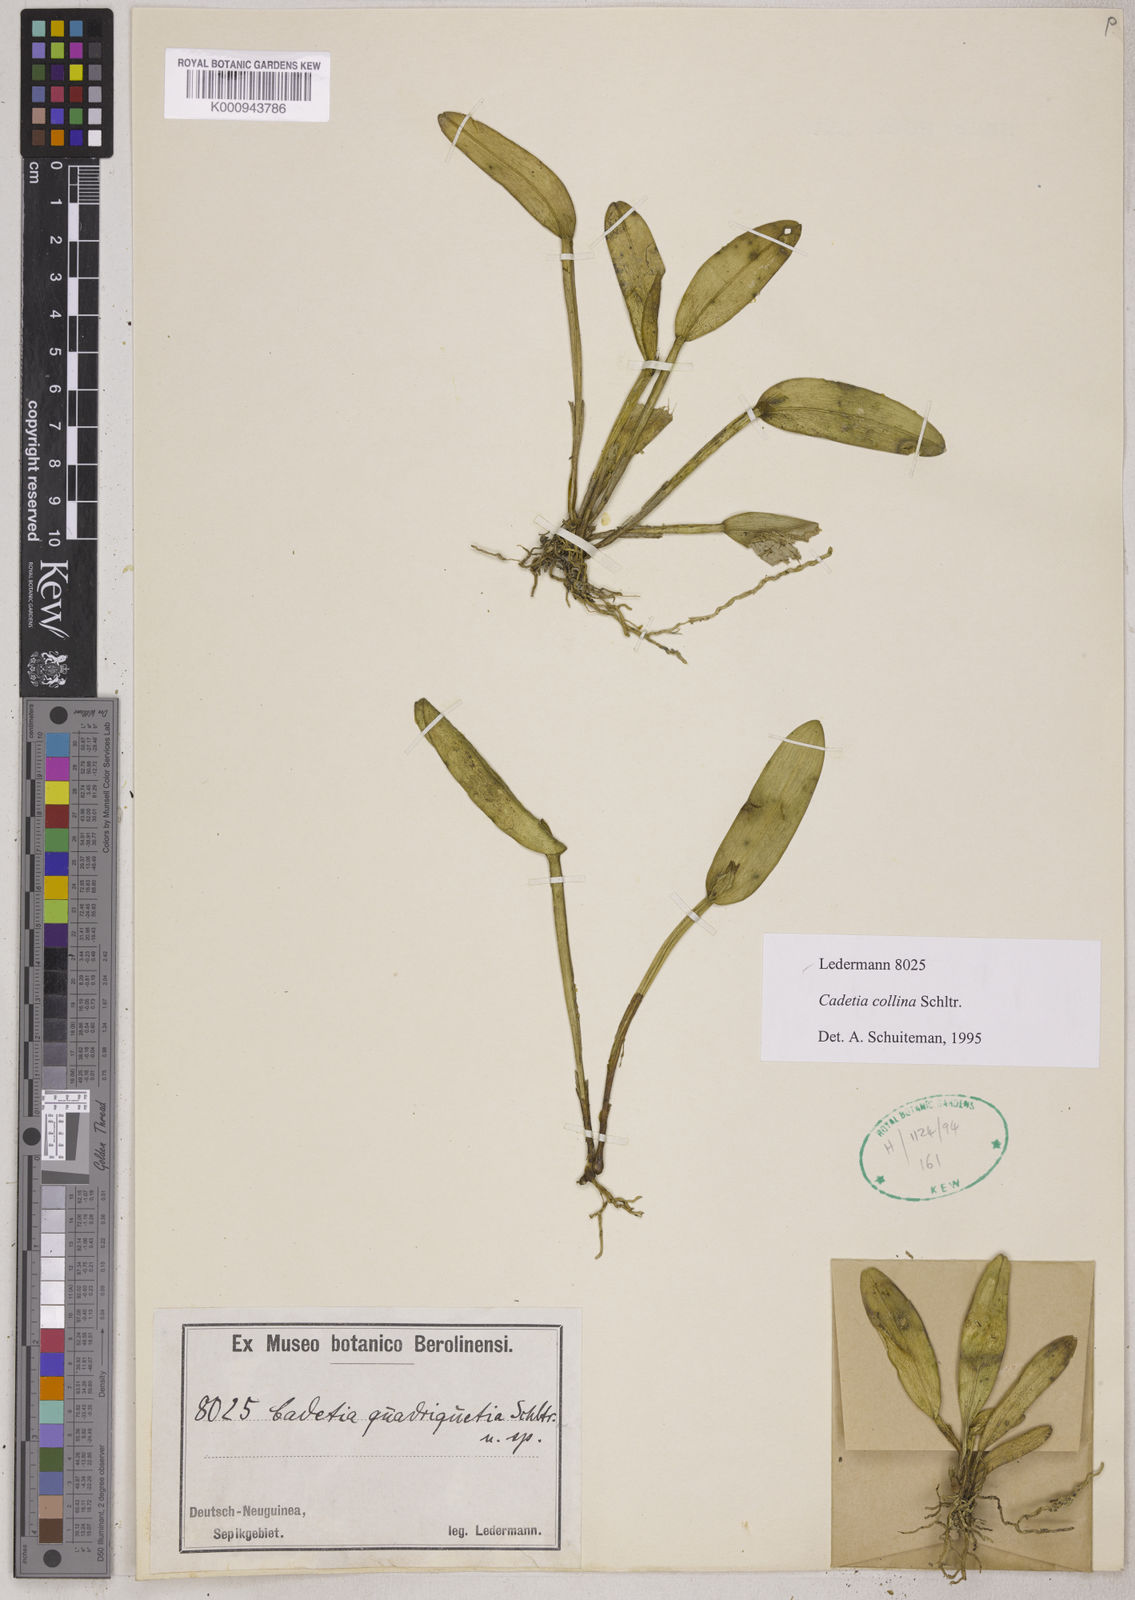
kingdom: Plantae
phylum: Tracheophyta
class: Liliopsida
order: Asparagales
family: Orchidaceae
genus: Dendrobium
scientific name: Dendrobium versteegii
